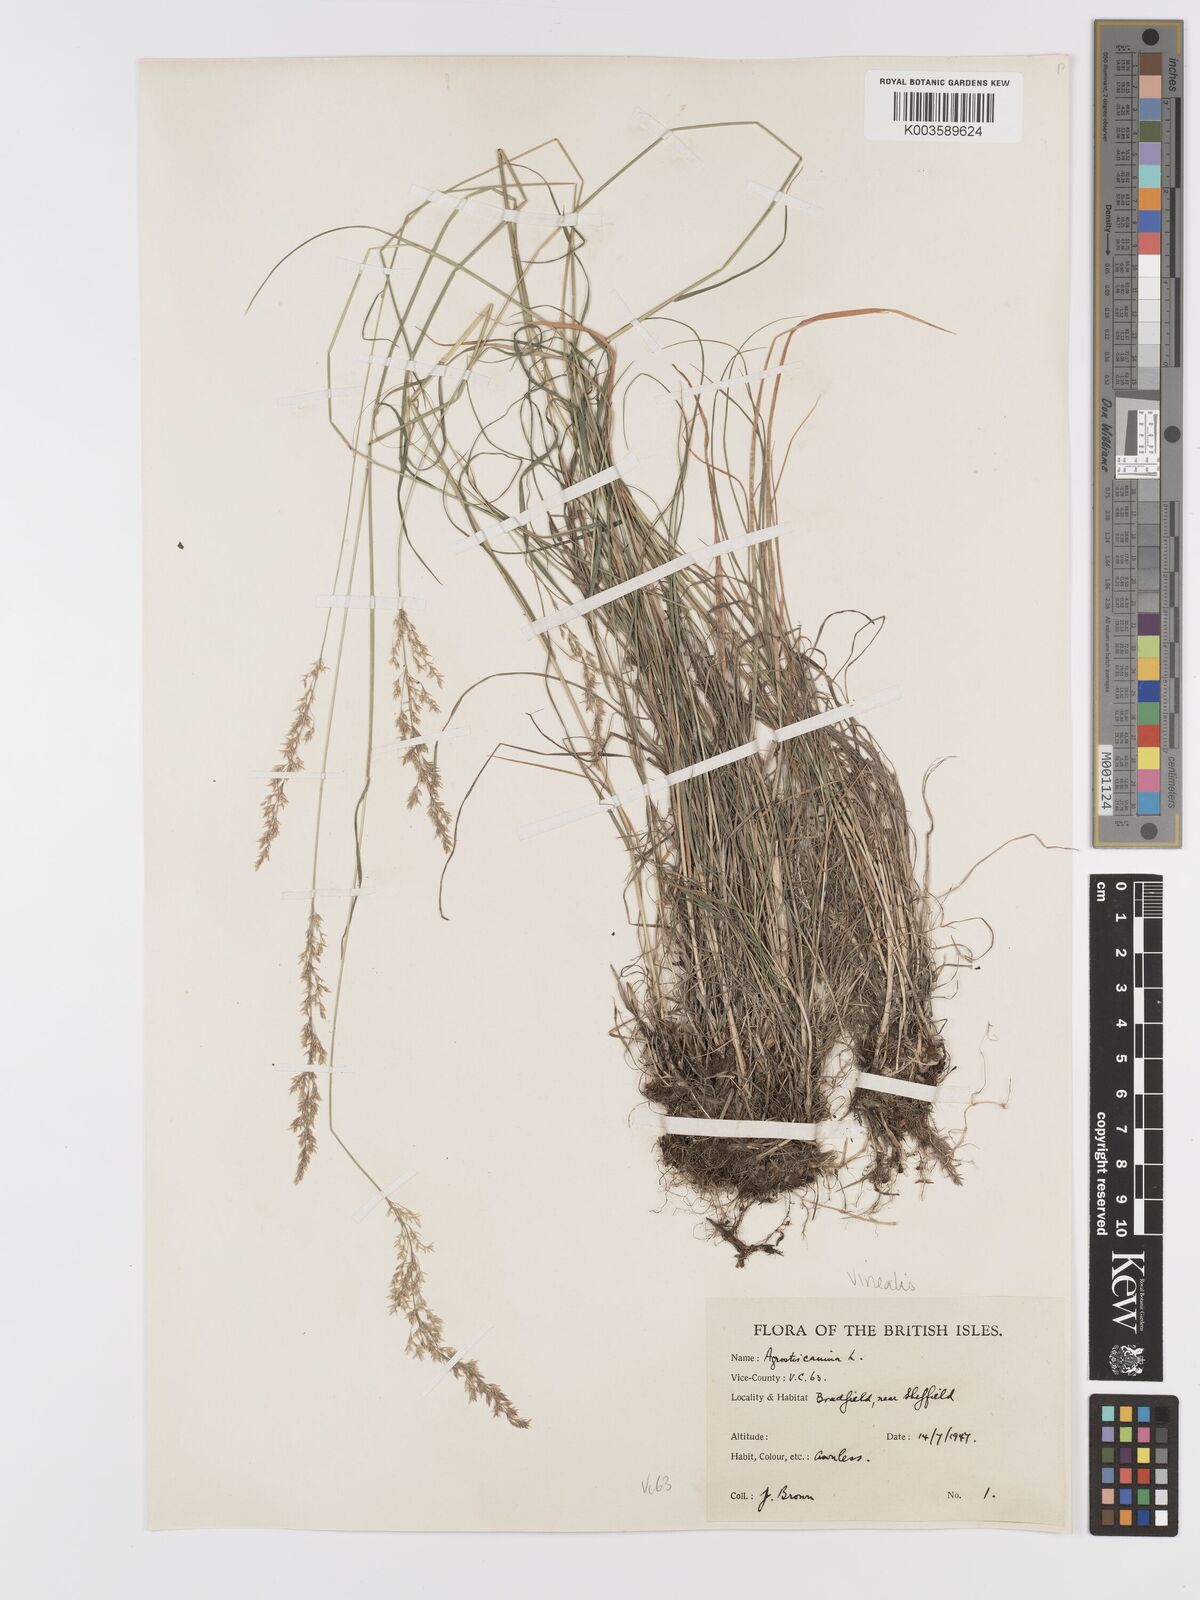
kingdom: Plantae
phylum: Tracheophyta
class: Liliopsida
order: Poales
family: Poaceae
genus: Agrostis
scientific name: Agrostis
